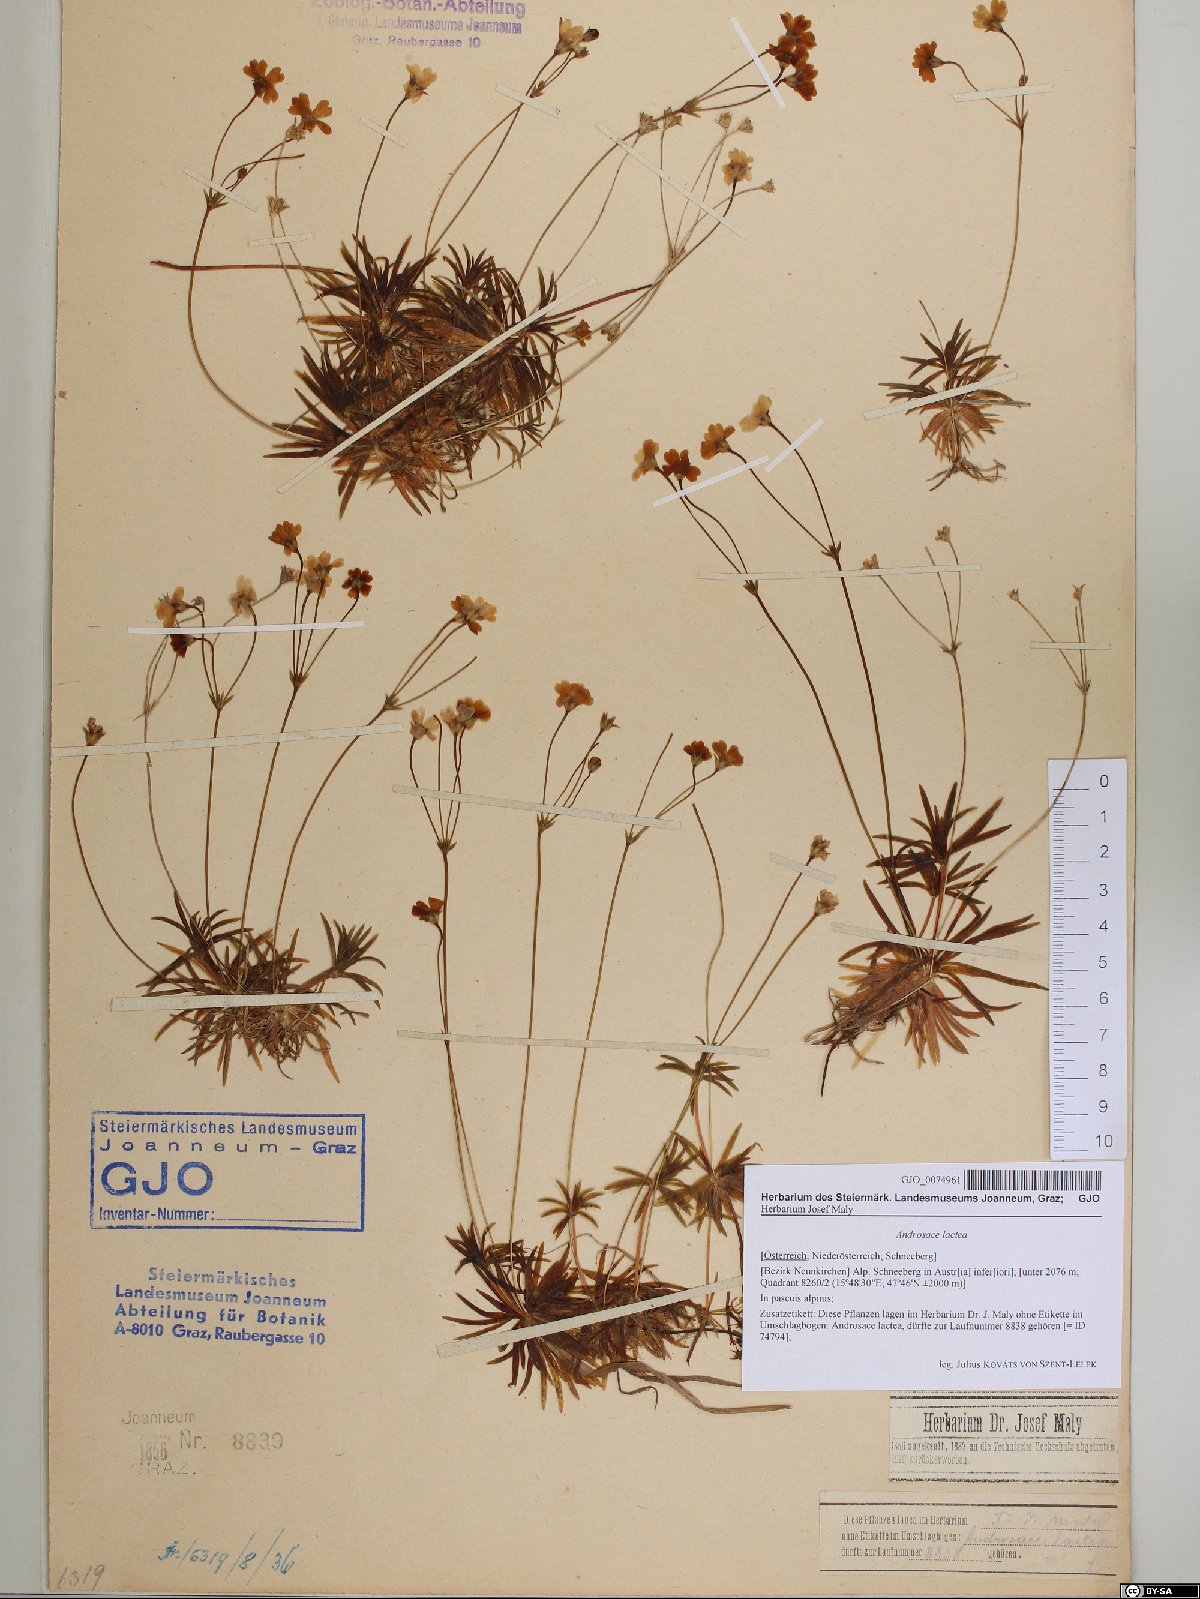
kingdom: Plantae
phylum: Tracheophyta
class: Magnoliopsida
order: Ericales
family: Primulaceae
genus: Androsace
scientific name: Androsace lactea
